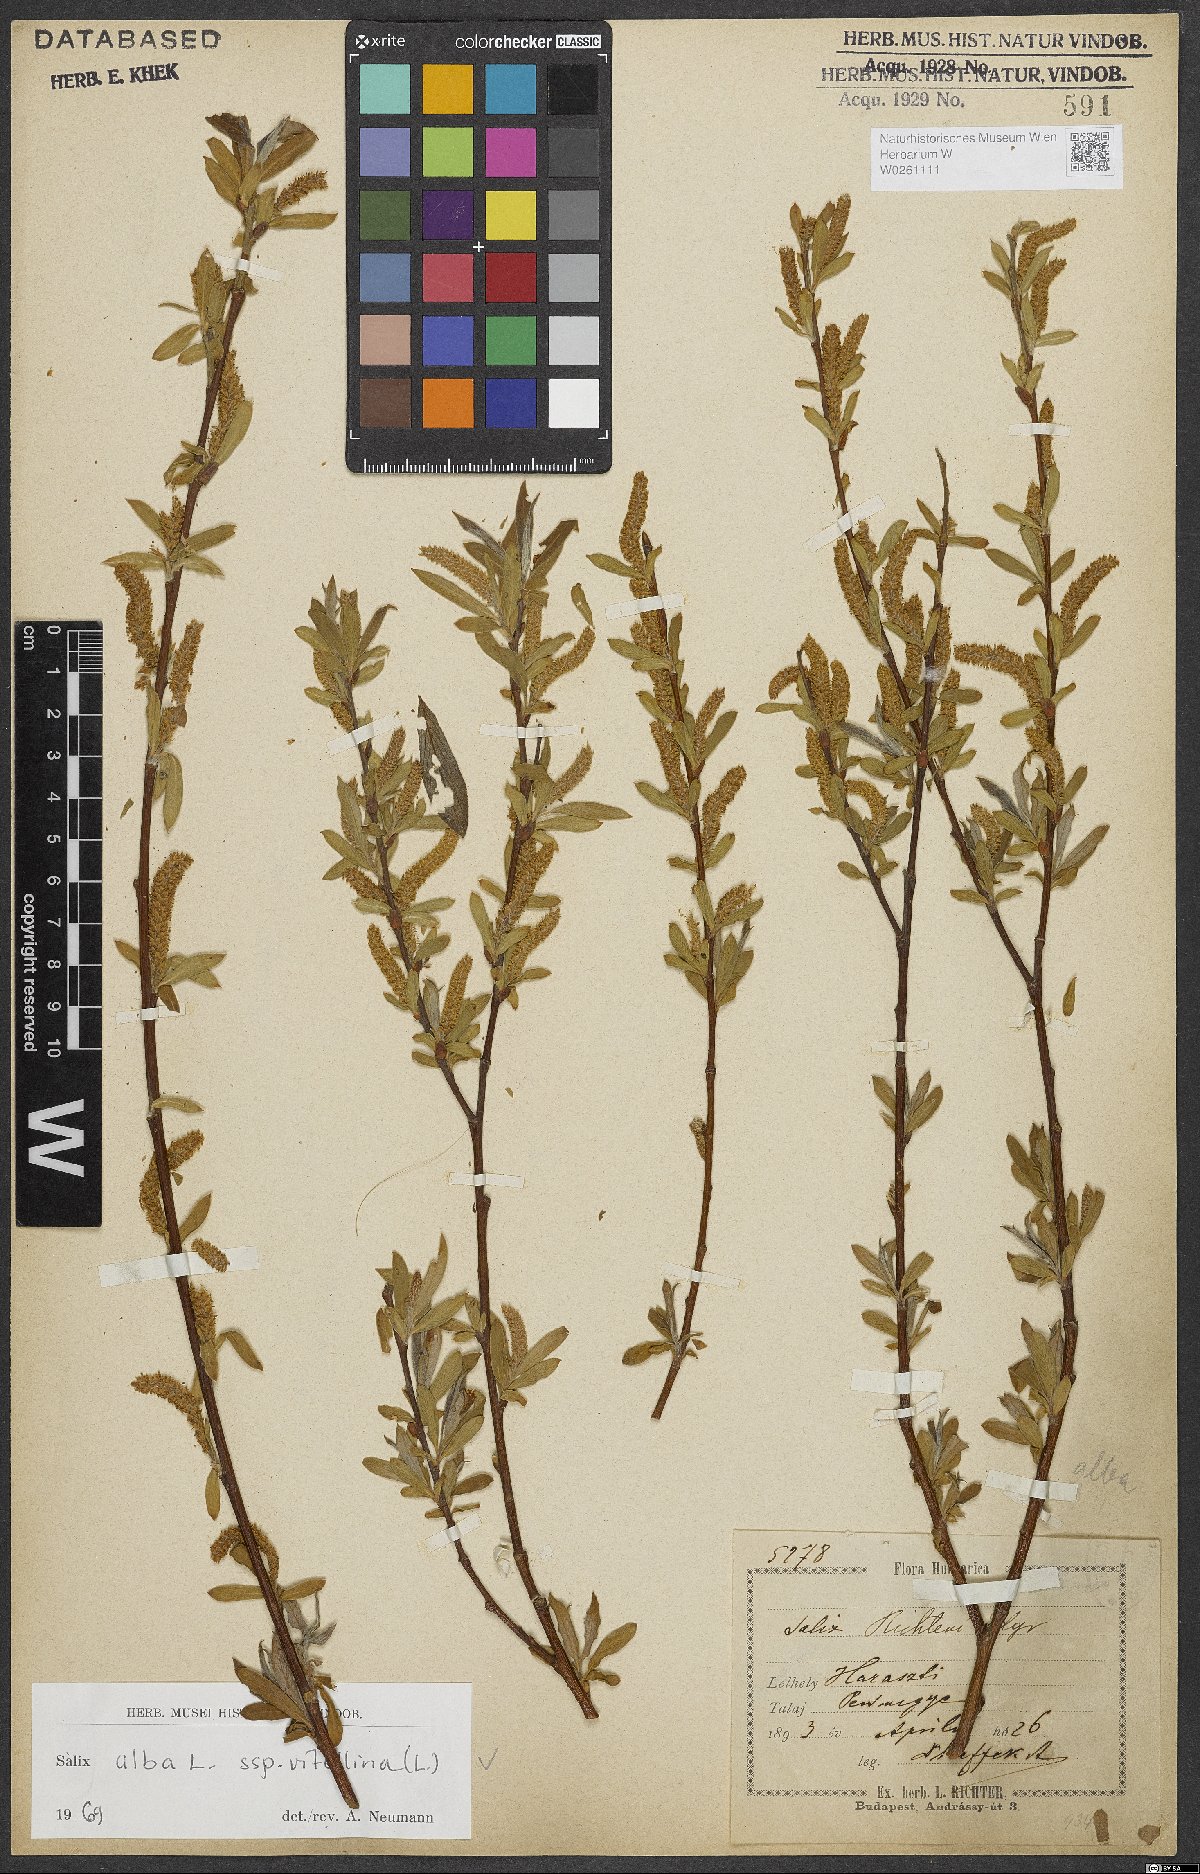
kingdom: Plantae
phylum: Tracheophyta
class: Magnoliopsida
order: Malpighiales
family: Salicaceae
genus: Salix
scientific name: Salix alba
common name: White willow
